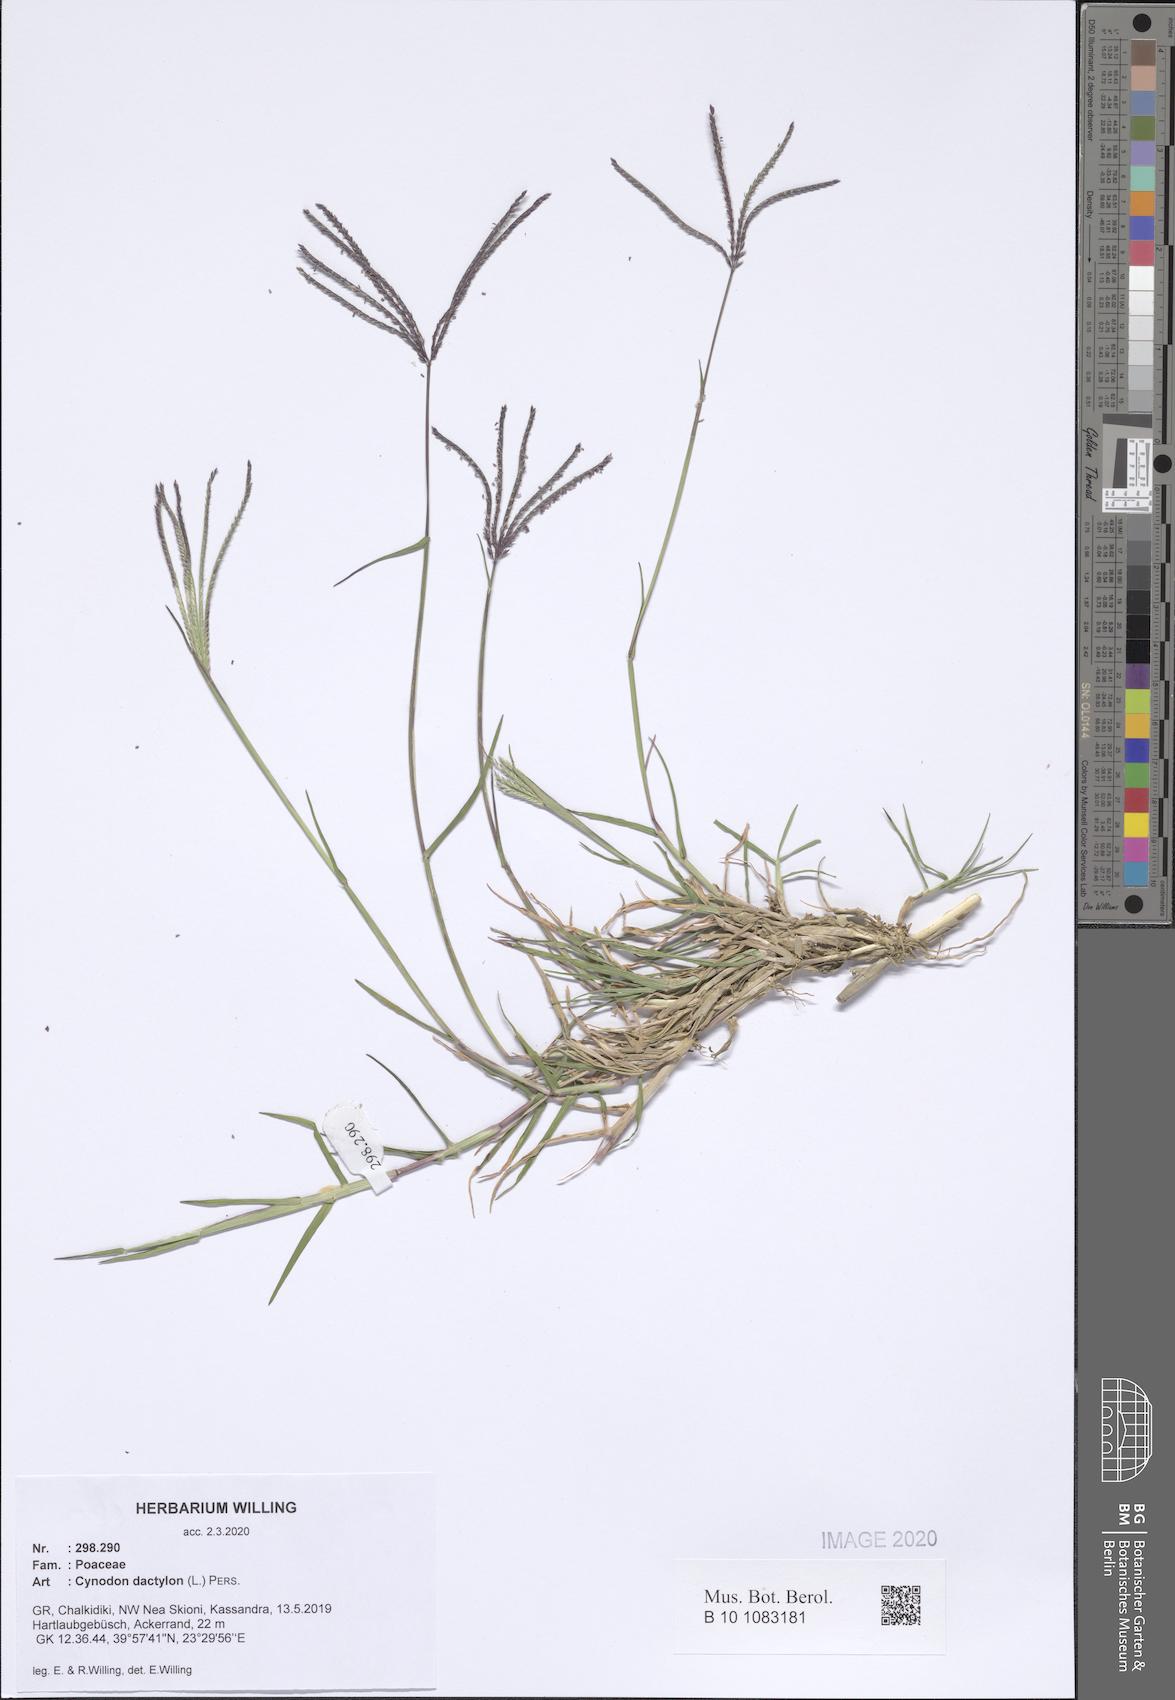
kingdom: Plantae
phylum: Tracheophyta
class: Liliopsida
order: Poales
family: Poaceae
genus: Cynodon
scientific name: Cynodon dactylon
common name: Bermuda grass
